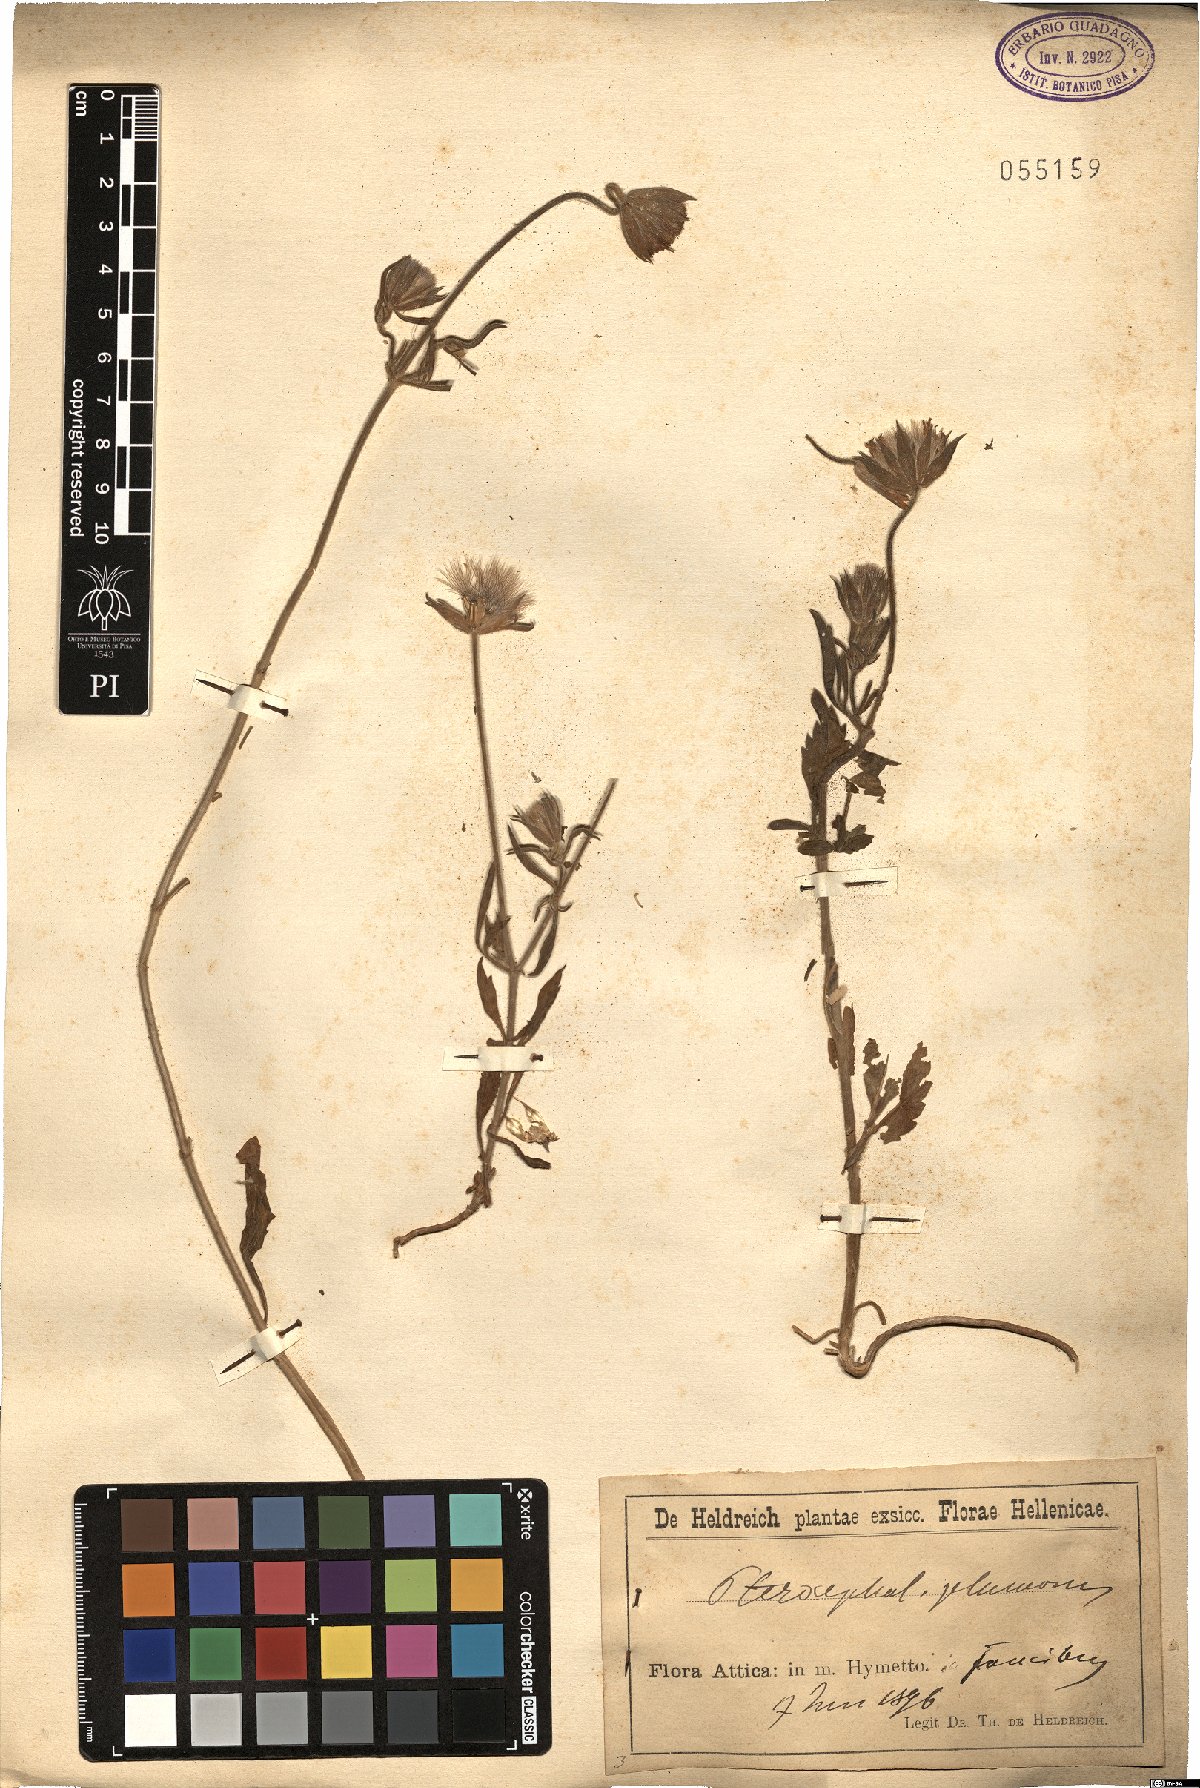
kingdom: Plantae
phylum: Tracheophyta
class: Magnoliopsida
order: Dipsacales
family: Caprifoliaceae
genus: Pterocephalus
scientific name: Pterocephalus plumosus
